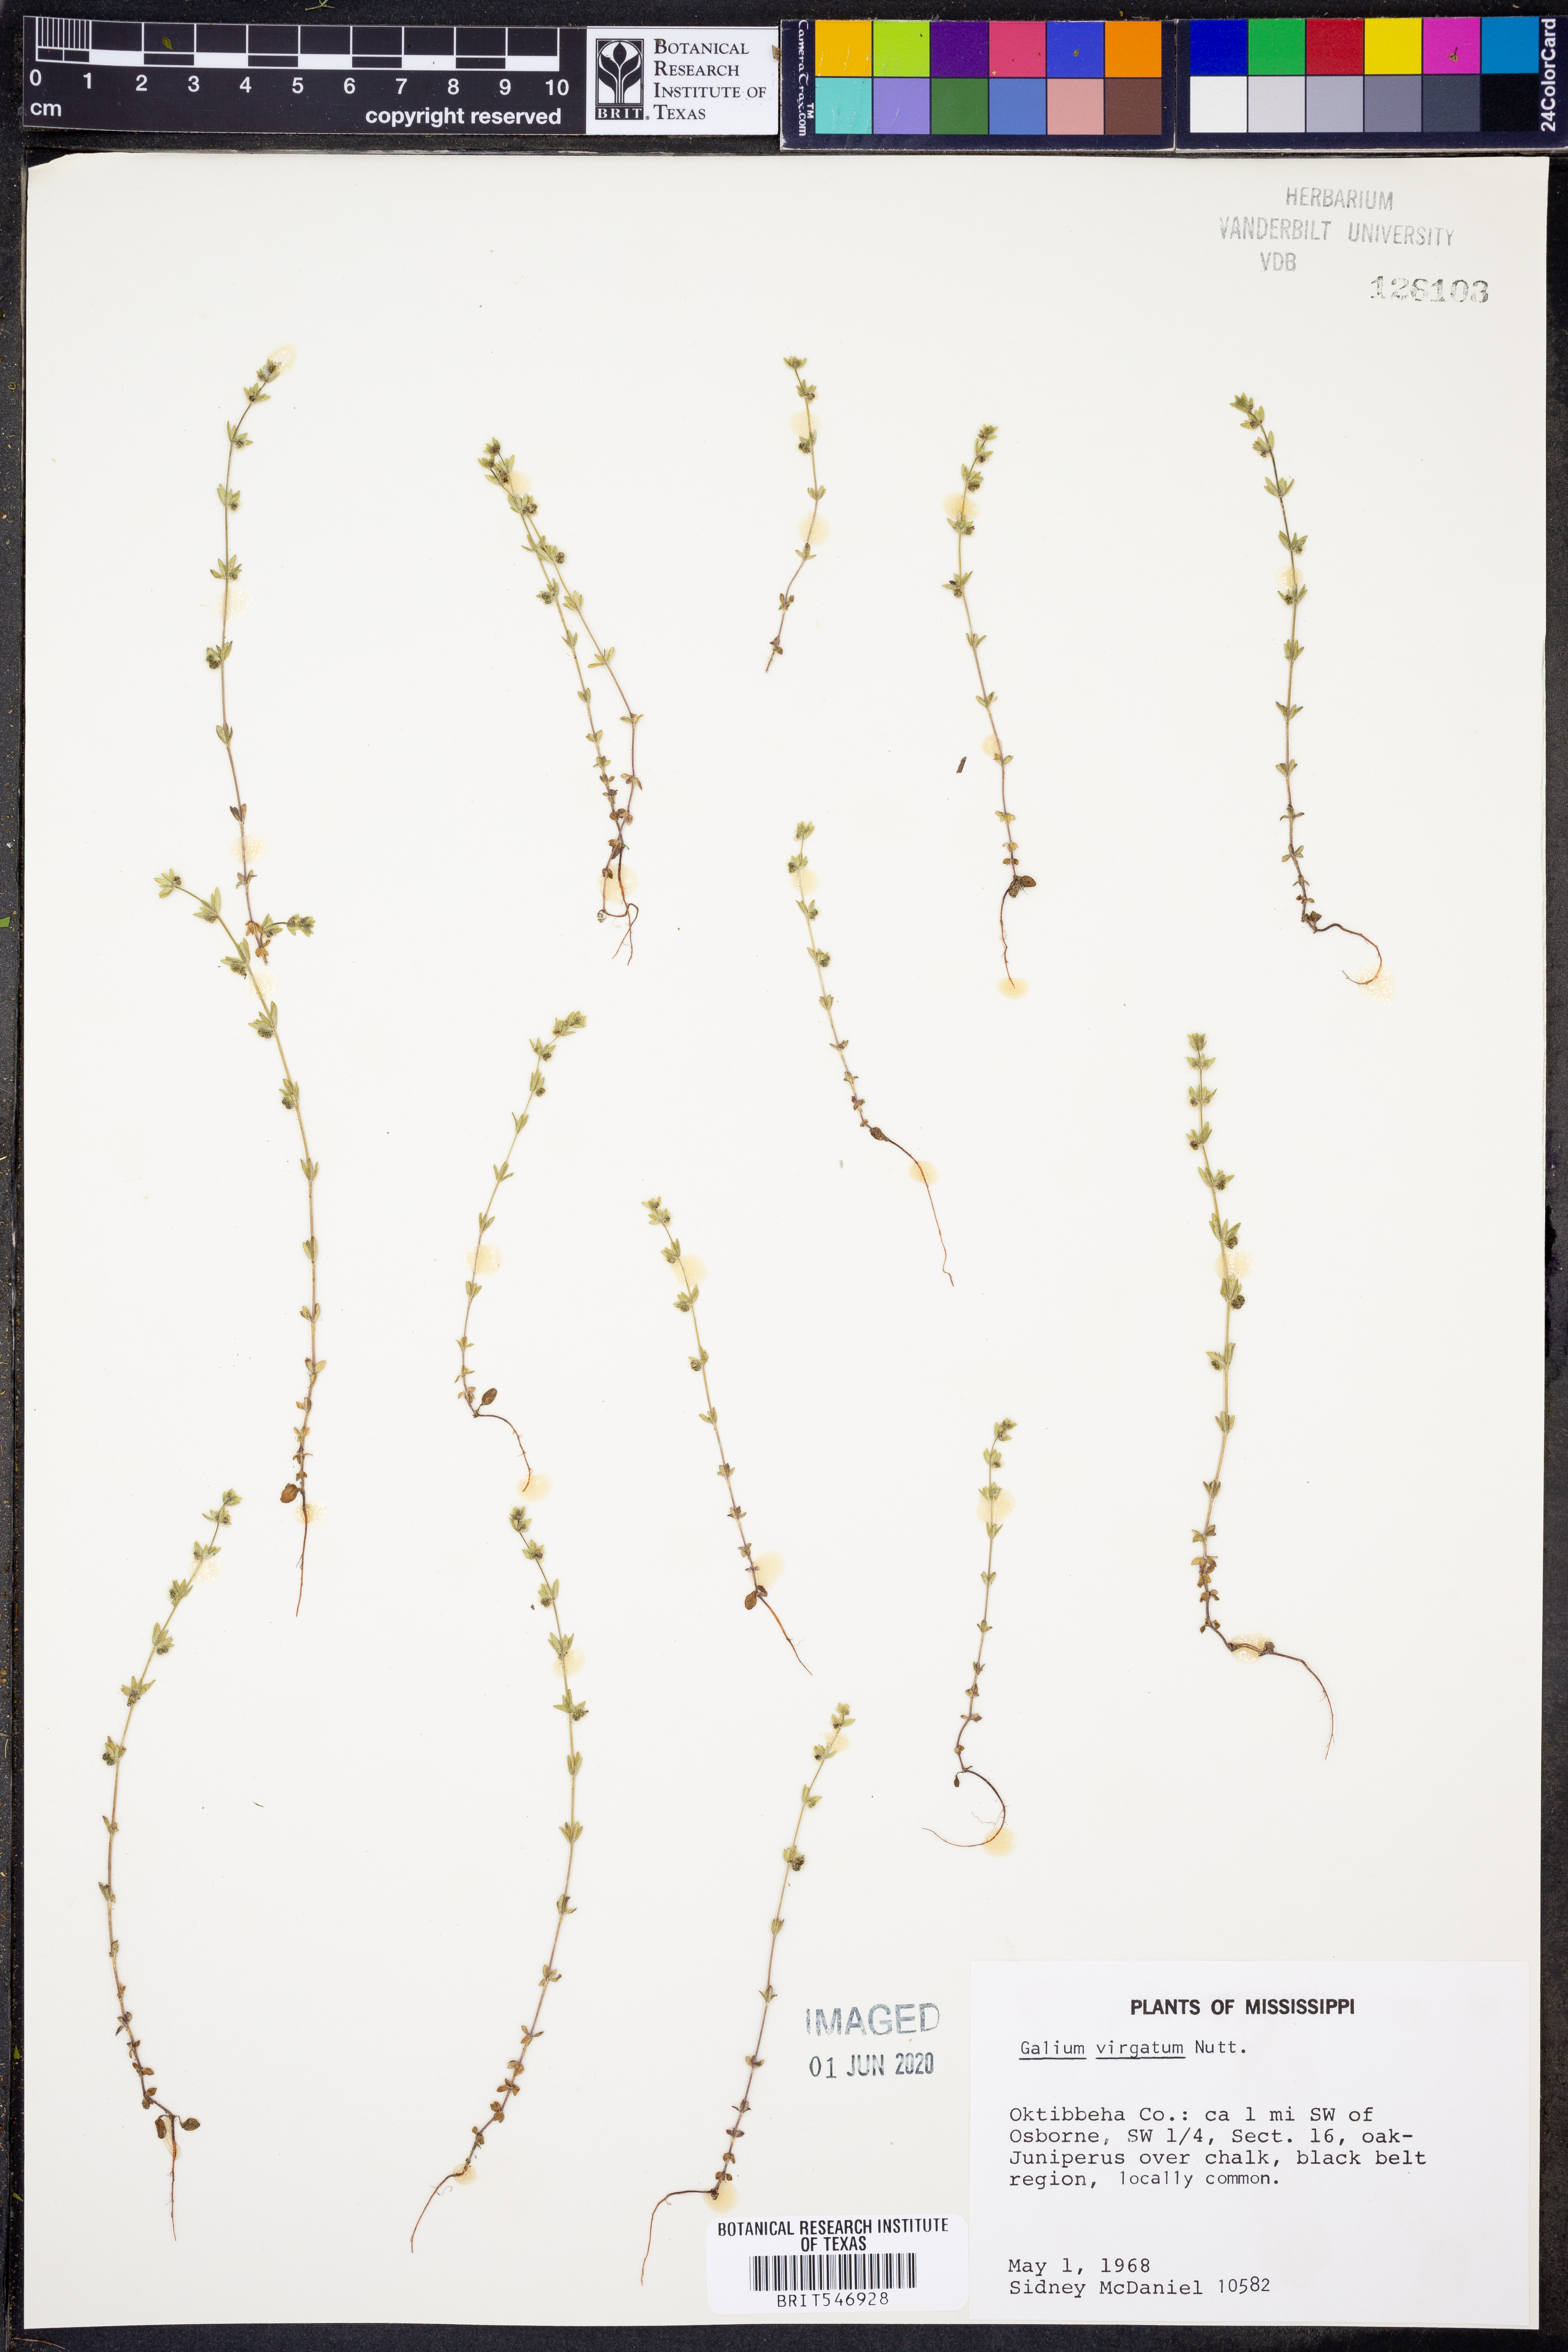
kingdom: Plantae
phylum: Tracheophyta
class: Magnoliopsida
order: Gentianales
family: Rubiaceae
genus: Galium
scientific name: Galium virgatum
